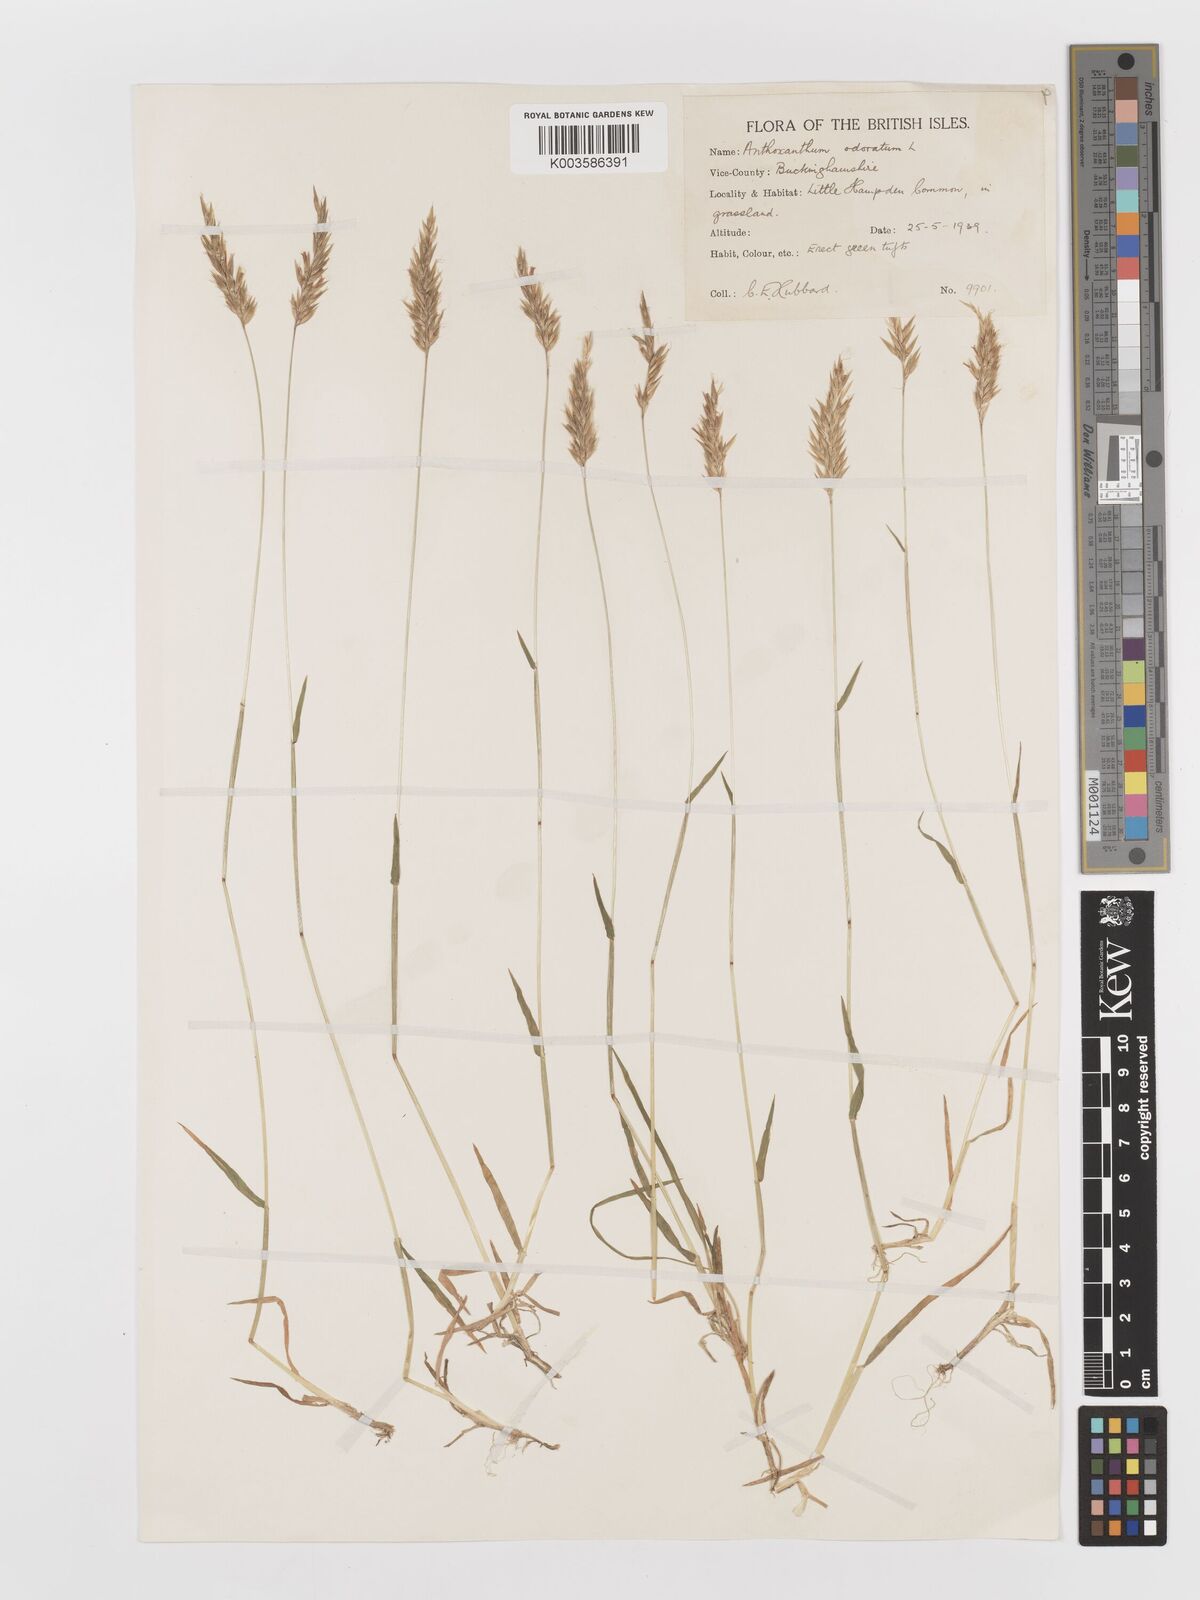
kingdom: Plantae
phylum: Tracheophyta
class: Liliopsida
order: Poales
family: Poaceae
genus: Anthoxanthum
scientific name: Anthoxanthum odoratum
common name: Sweet vernalgrass
